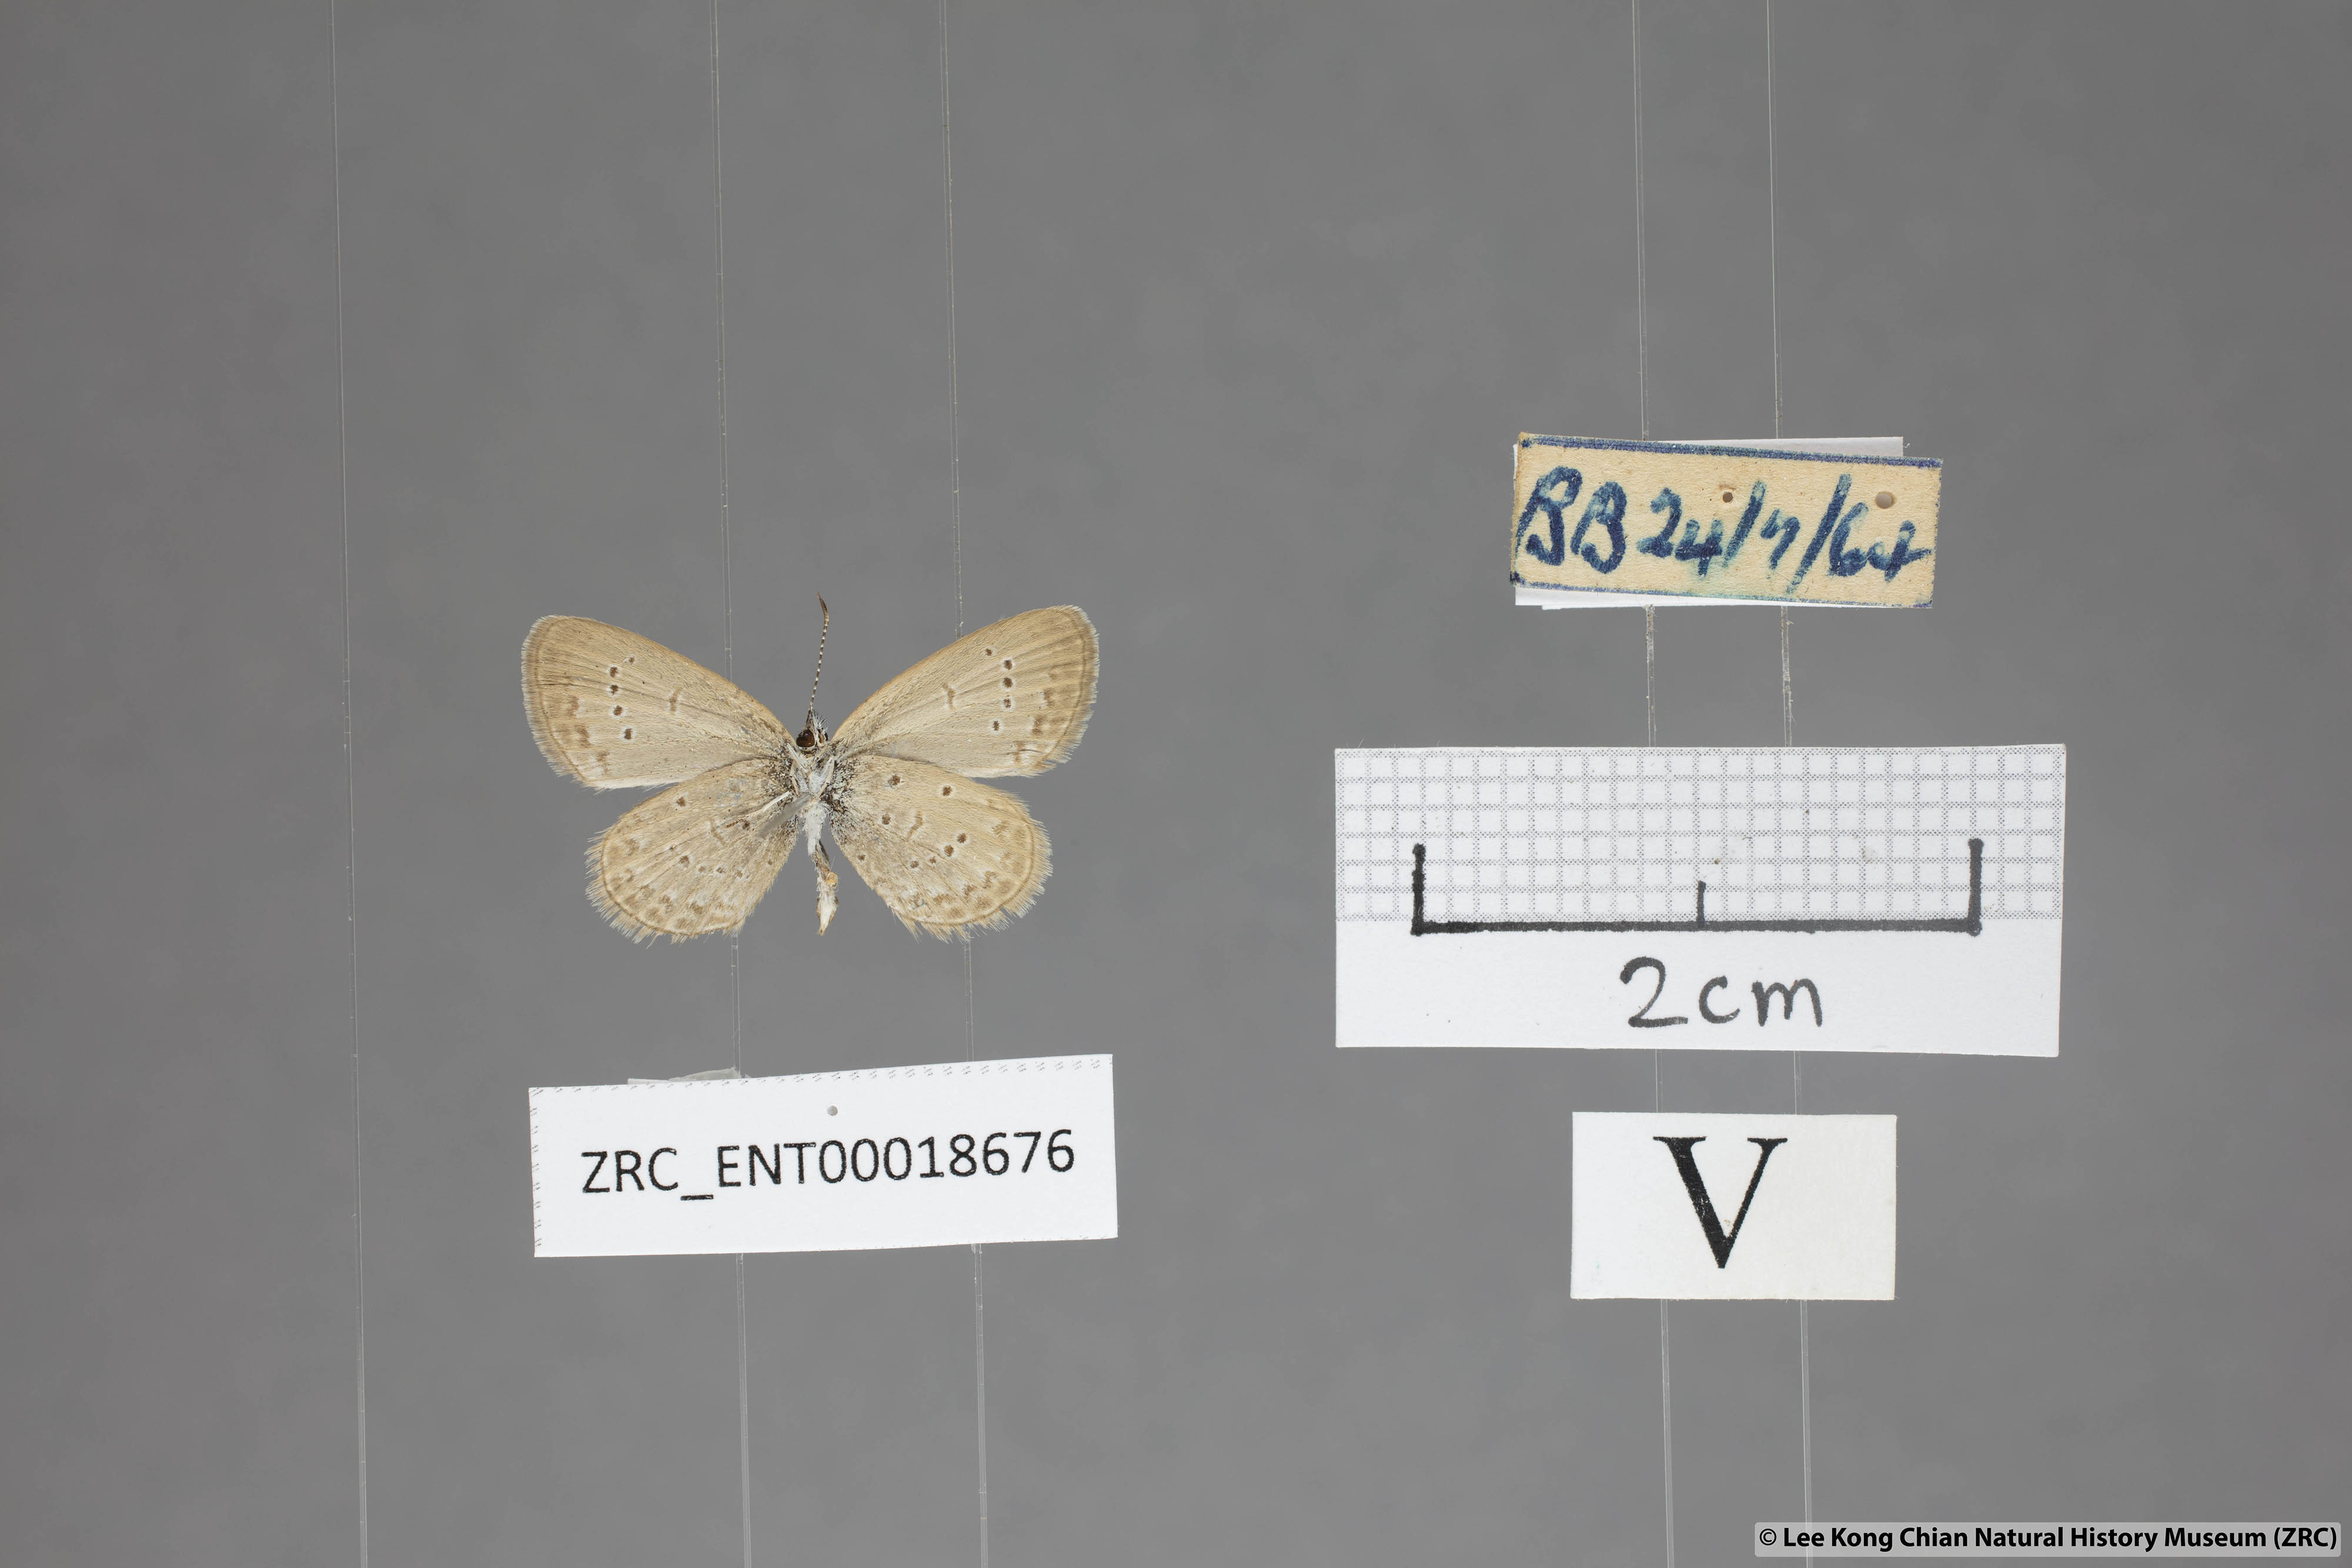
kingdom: Animalia
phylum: Arthropoda
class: Insecta
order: Lepidoptera
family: Lycaenidae
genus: Zizina
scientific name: Zizina otis
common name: Lesser grass blue
